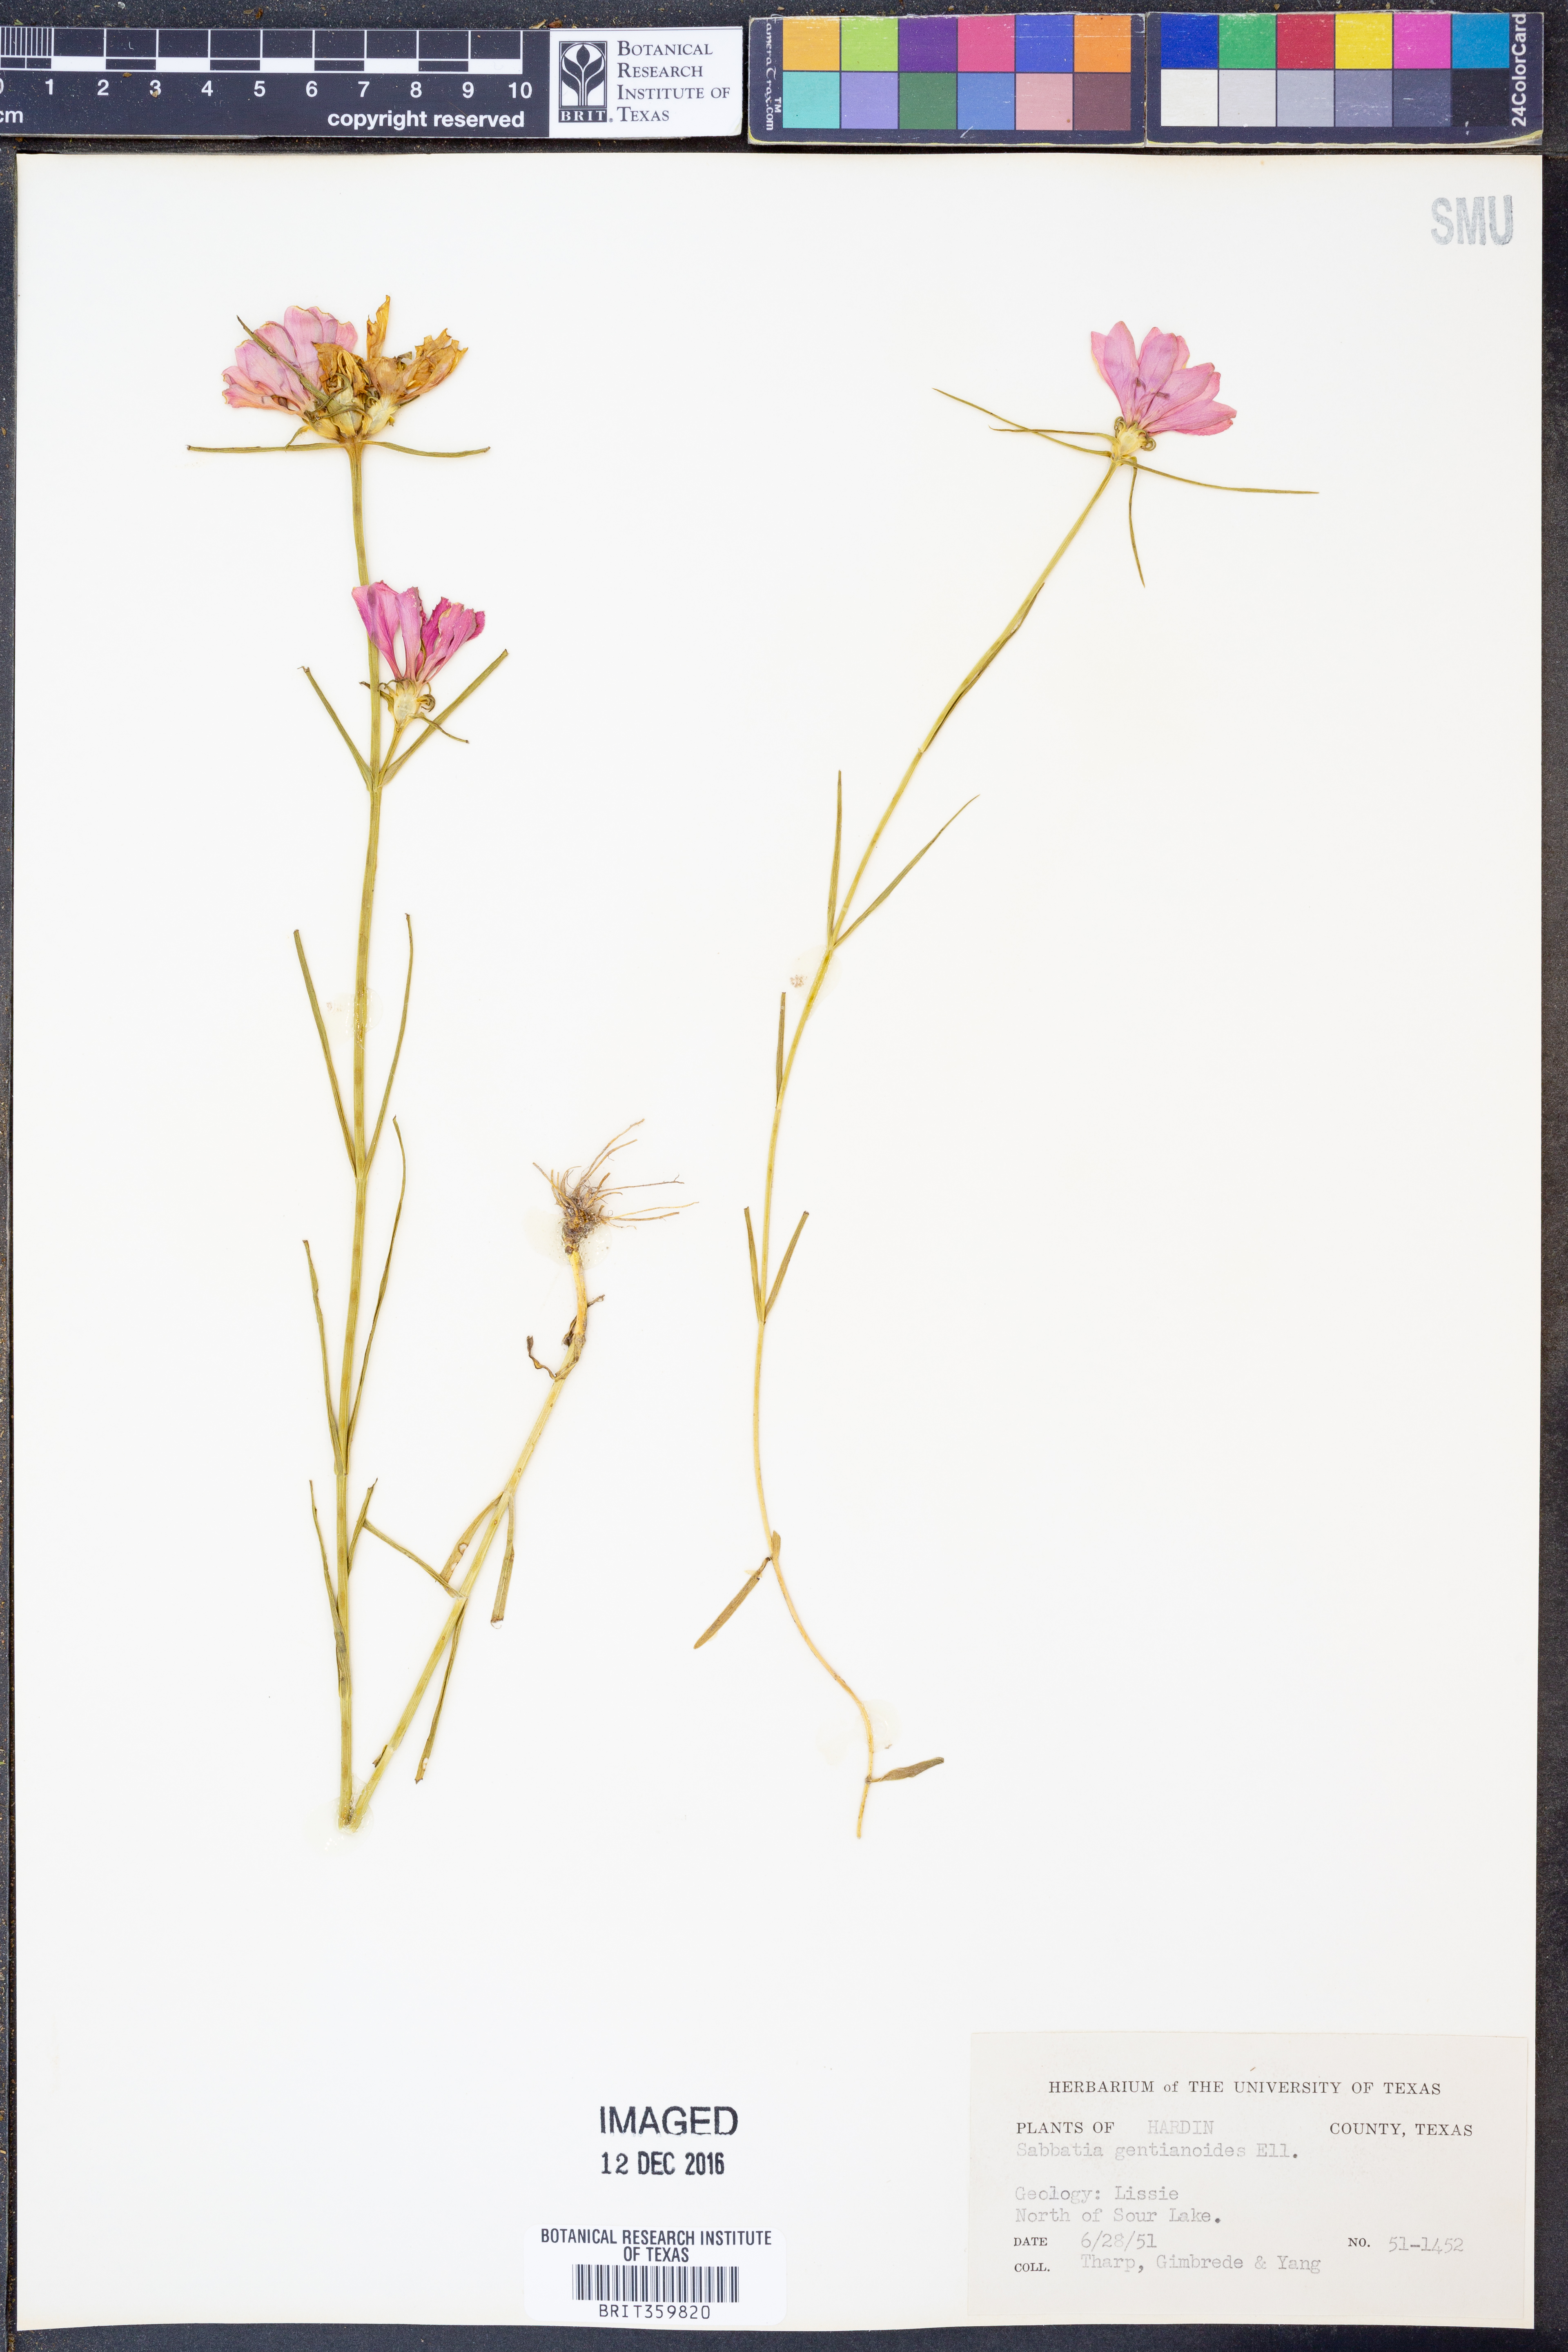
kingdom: Plantae
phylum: Tracheophyta
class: Magnoliopsida
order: Gentianales
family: Gentianaceae
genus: Sabatia
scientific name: Sabatia gentianoides
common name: Pinewoods rose-gentian
